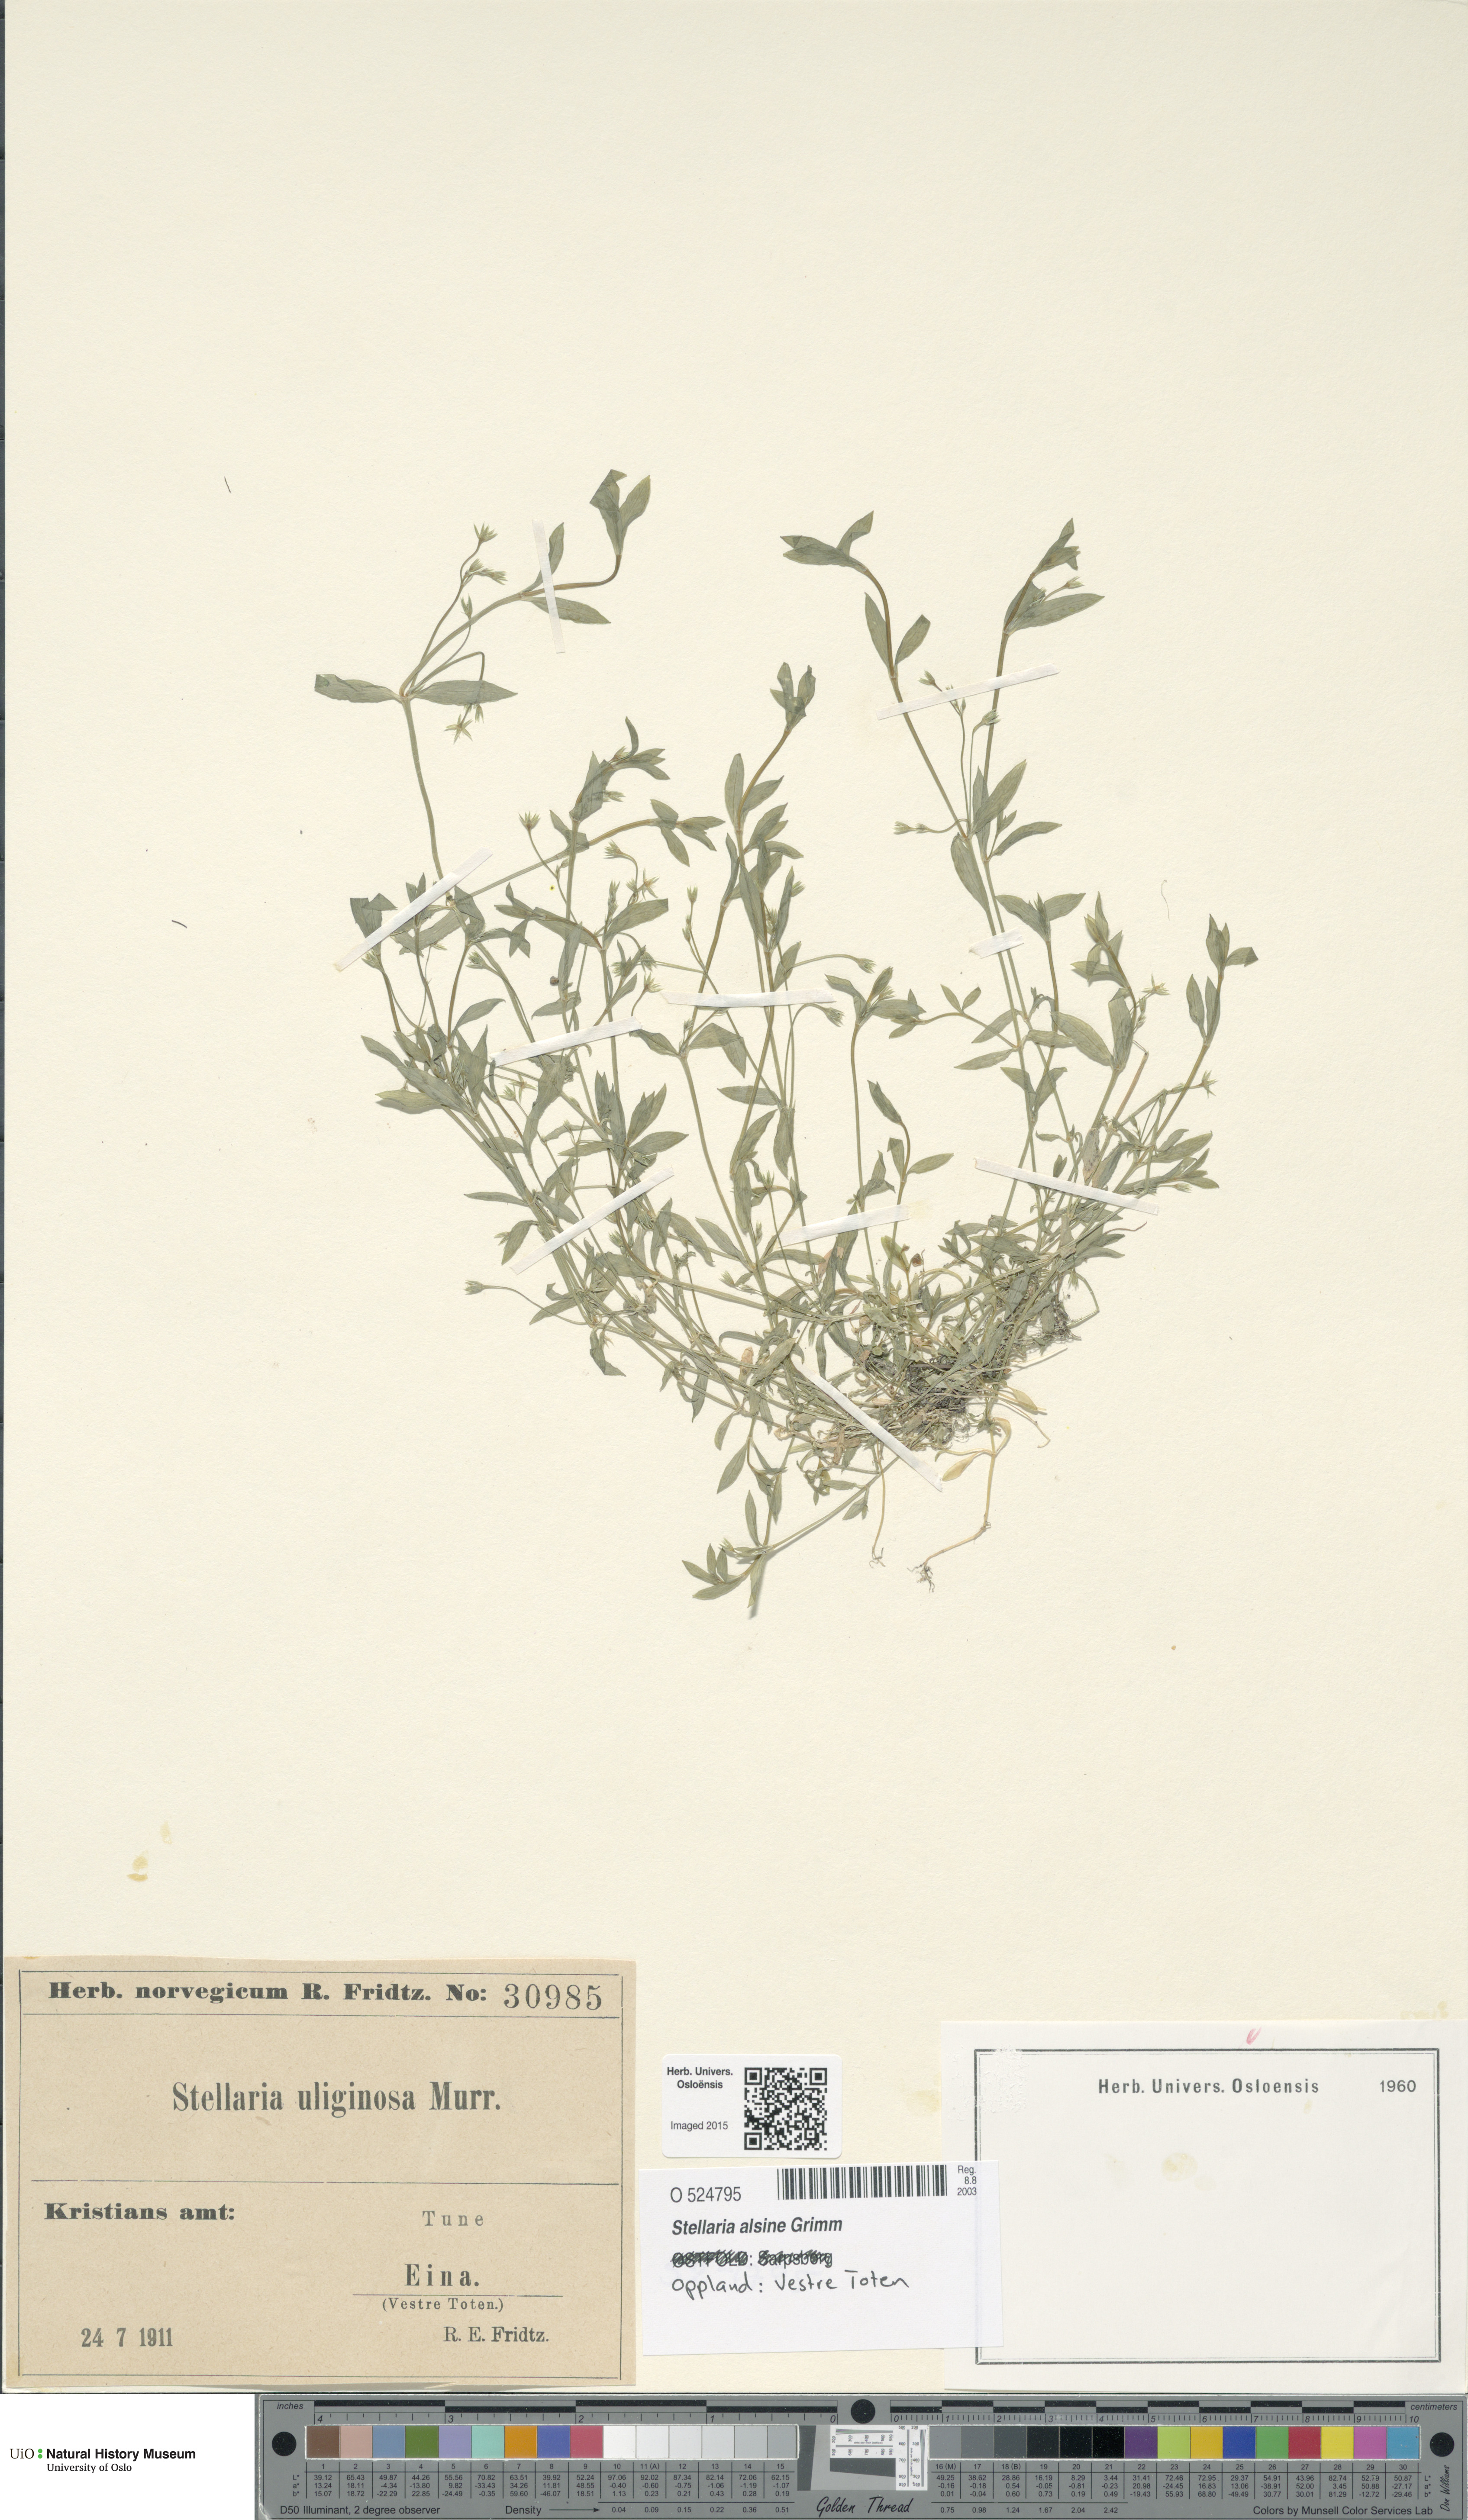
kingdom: Plantae
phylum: Tracheophyta
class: Magnoliopsida
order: Caryophyllales
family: Caryophyllaceae
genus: Stellaria
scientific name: Stellaria alsine
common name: Bog stitchwort
